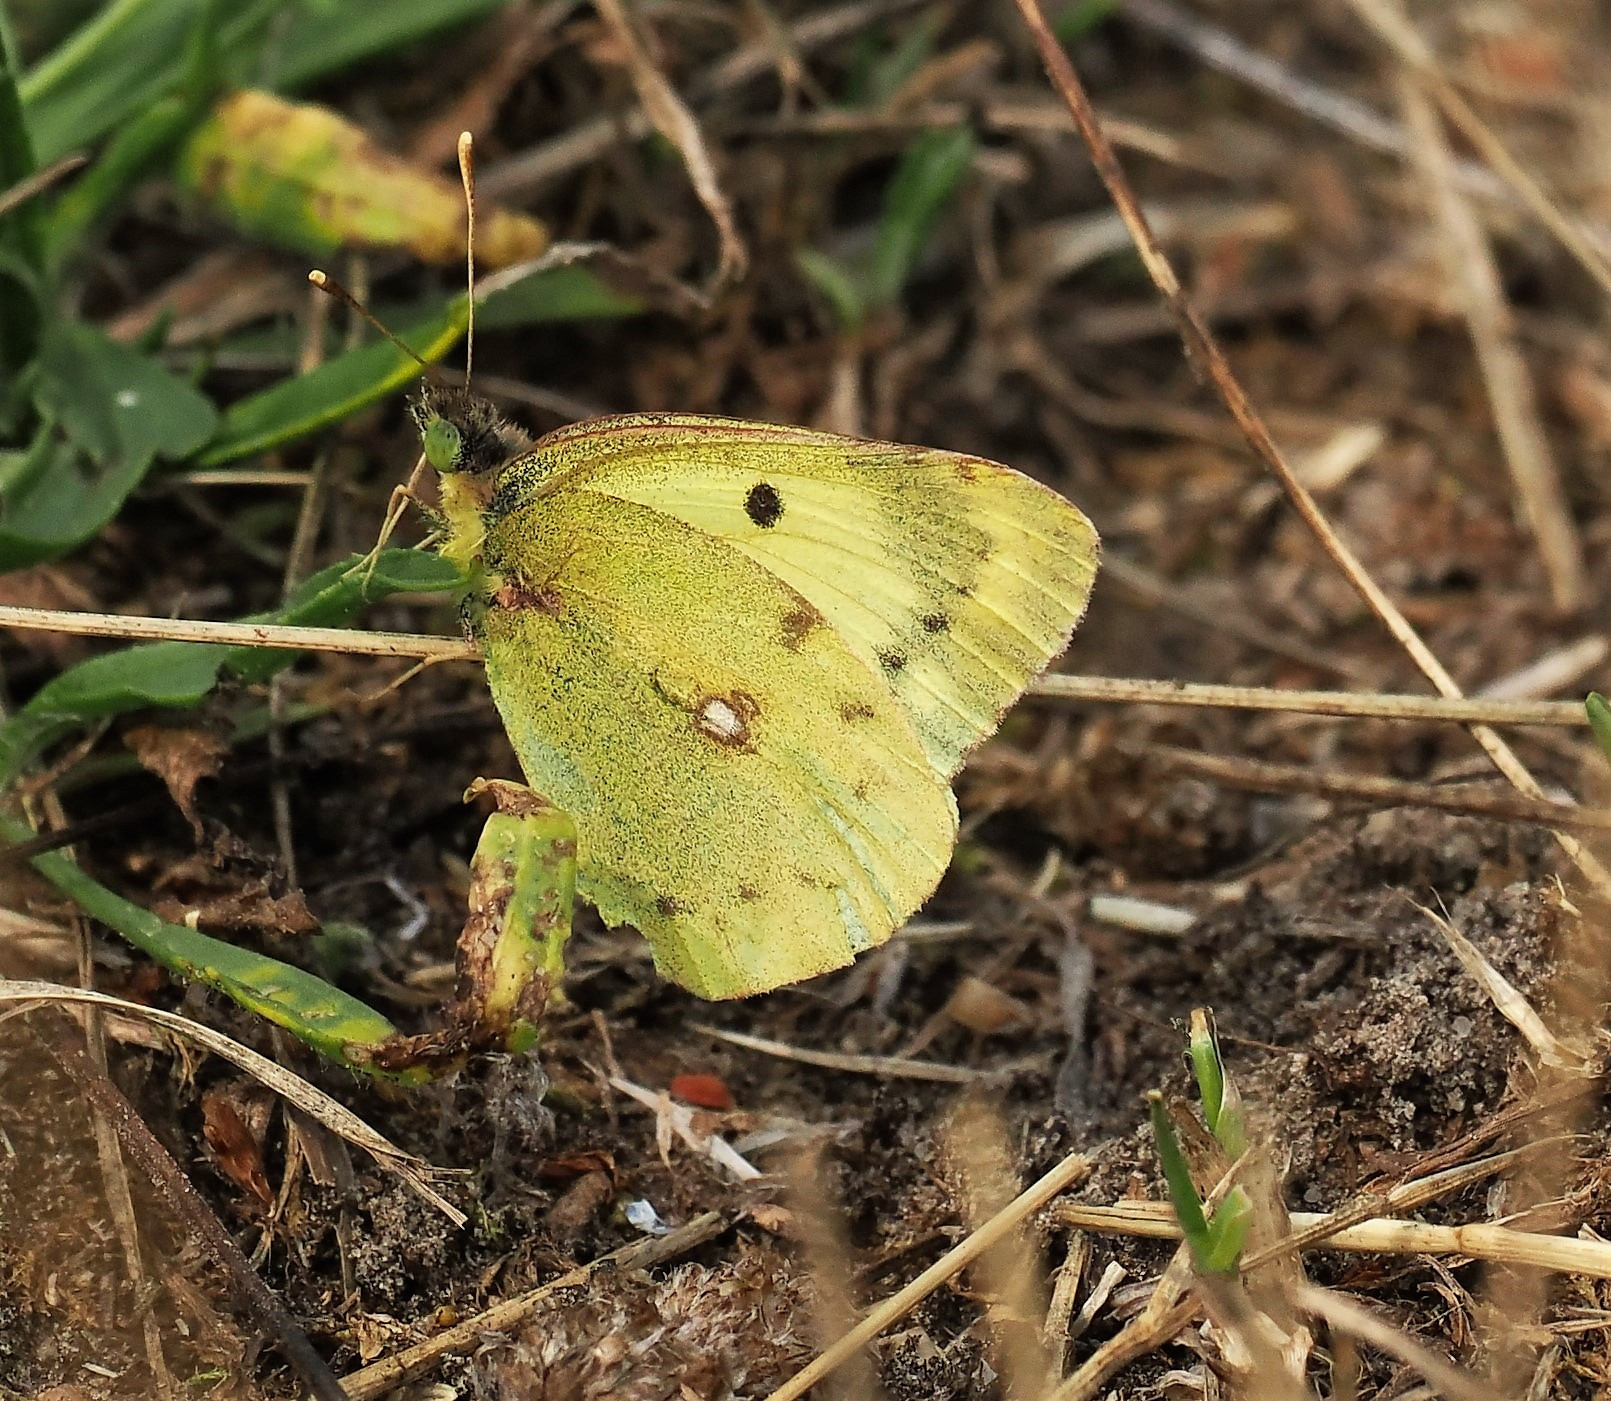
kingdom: Animalia
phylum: Arthropoda
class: Insecta
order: Lepidoptera
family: Pieridae
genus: Colias
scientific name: Colias hyale
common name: Gul høsommerfugl
